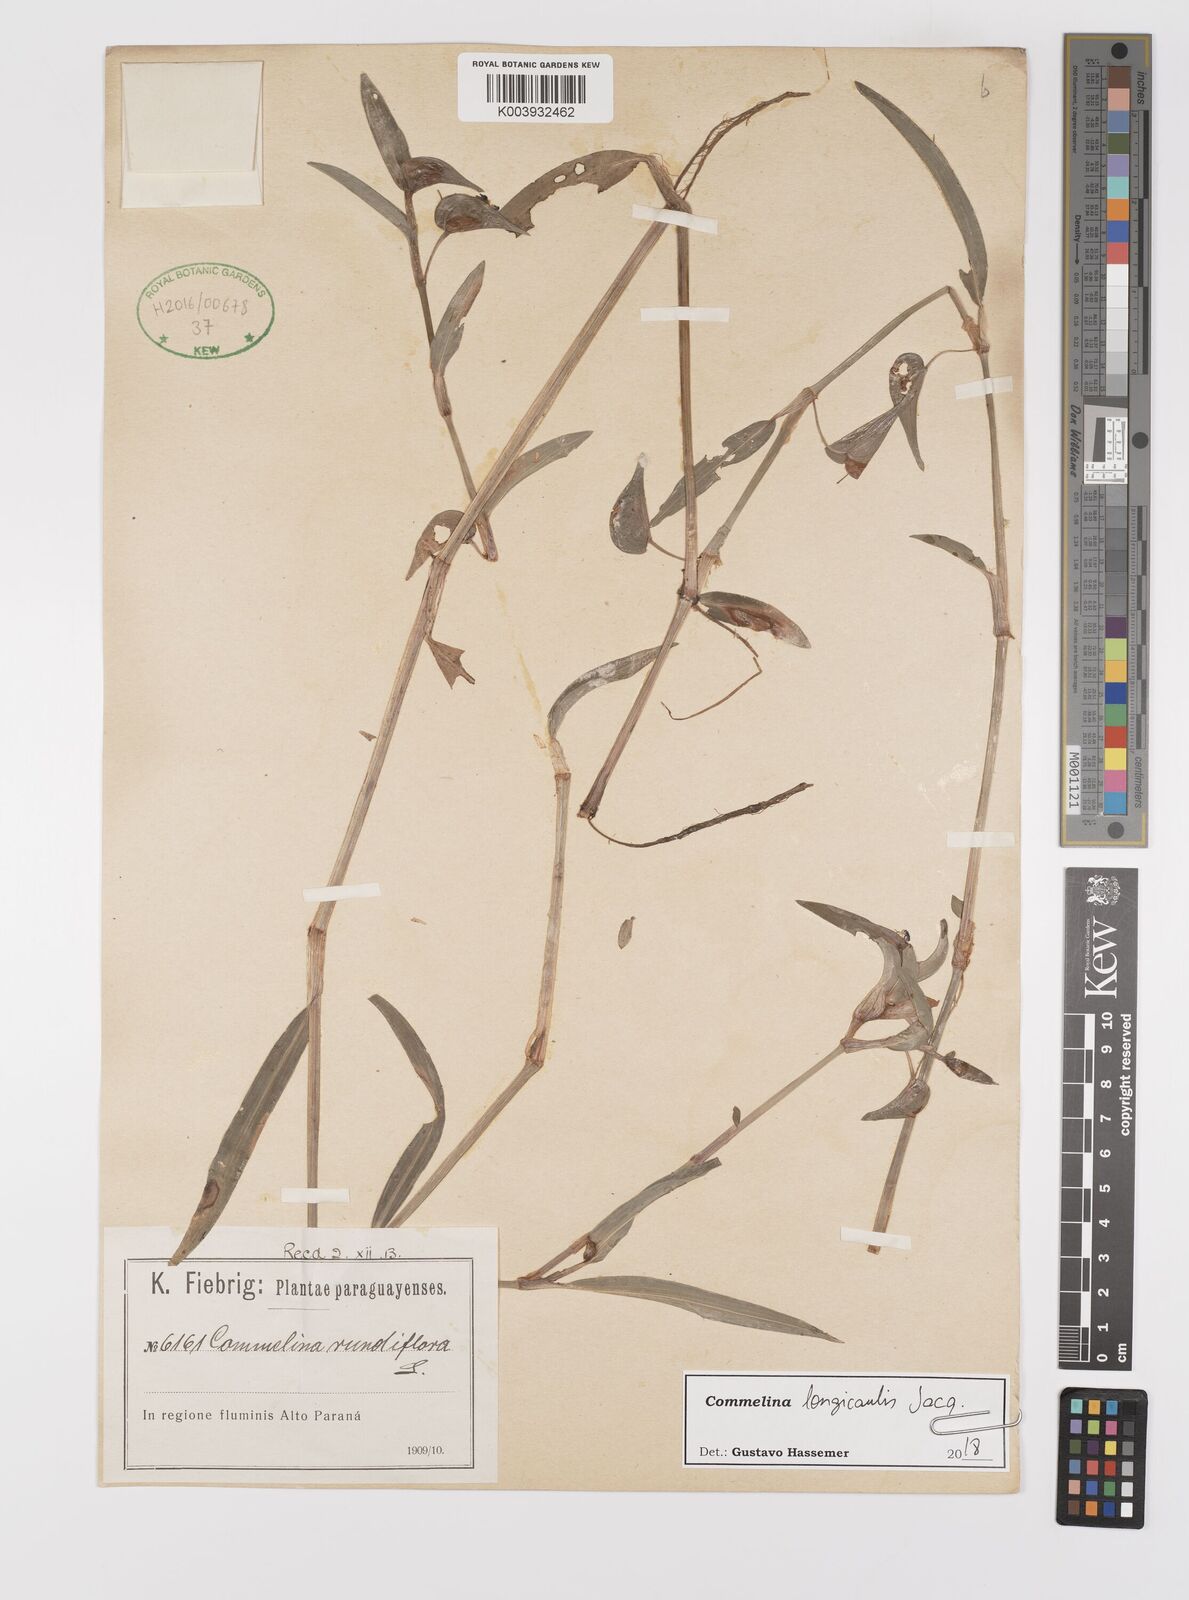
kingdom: Plantae
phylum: Tracheophyta
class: Liliopsida
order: Commelinales
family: Commelinaceae
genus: Commelina
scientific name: Commelina diffusa
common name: Climbing dayflower
